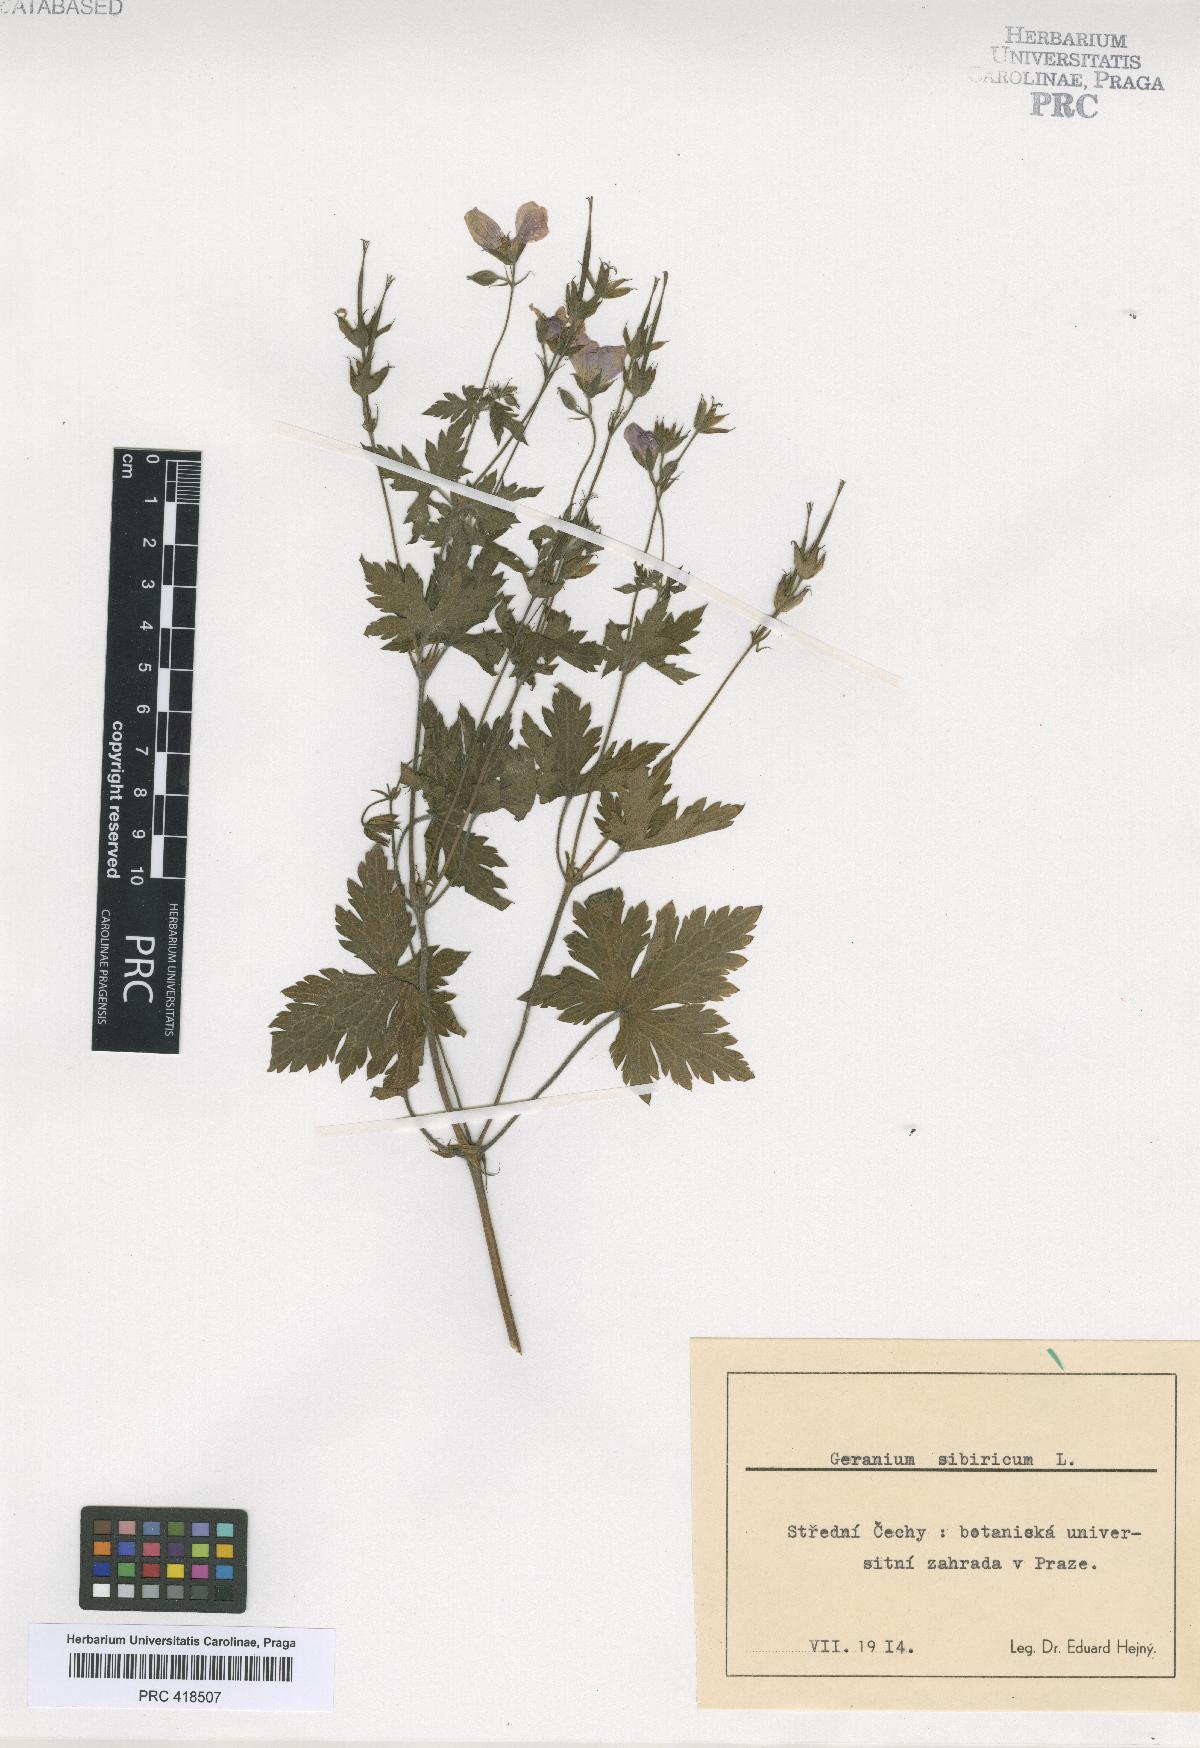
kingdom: Plantae
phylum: Tracheophyta
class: Magnoliopsida
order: Geraniales
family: Geraniaceae
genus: Geranium
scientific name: Geranium
